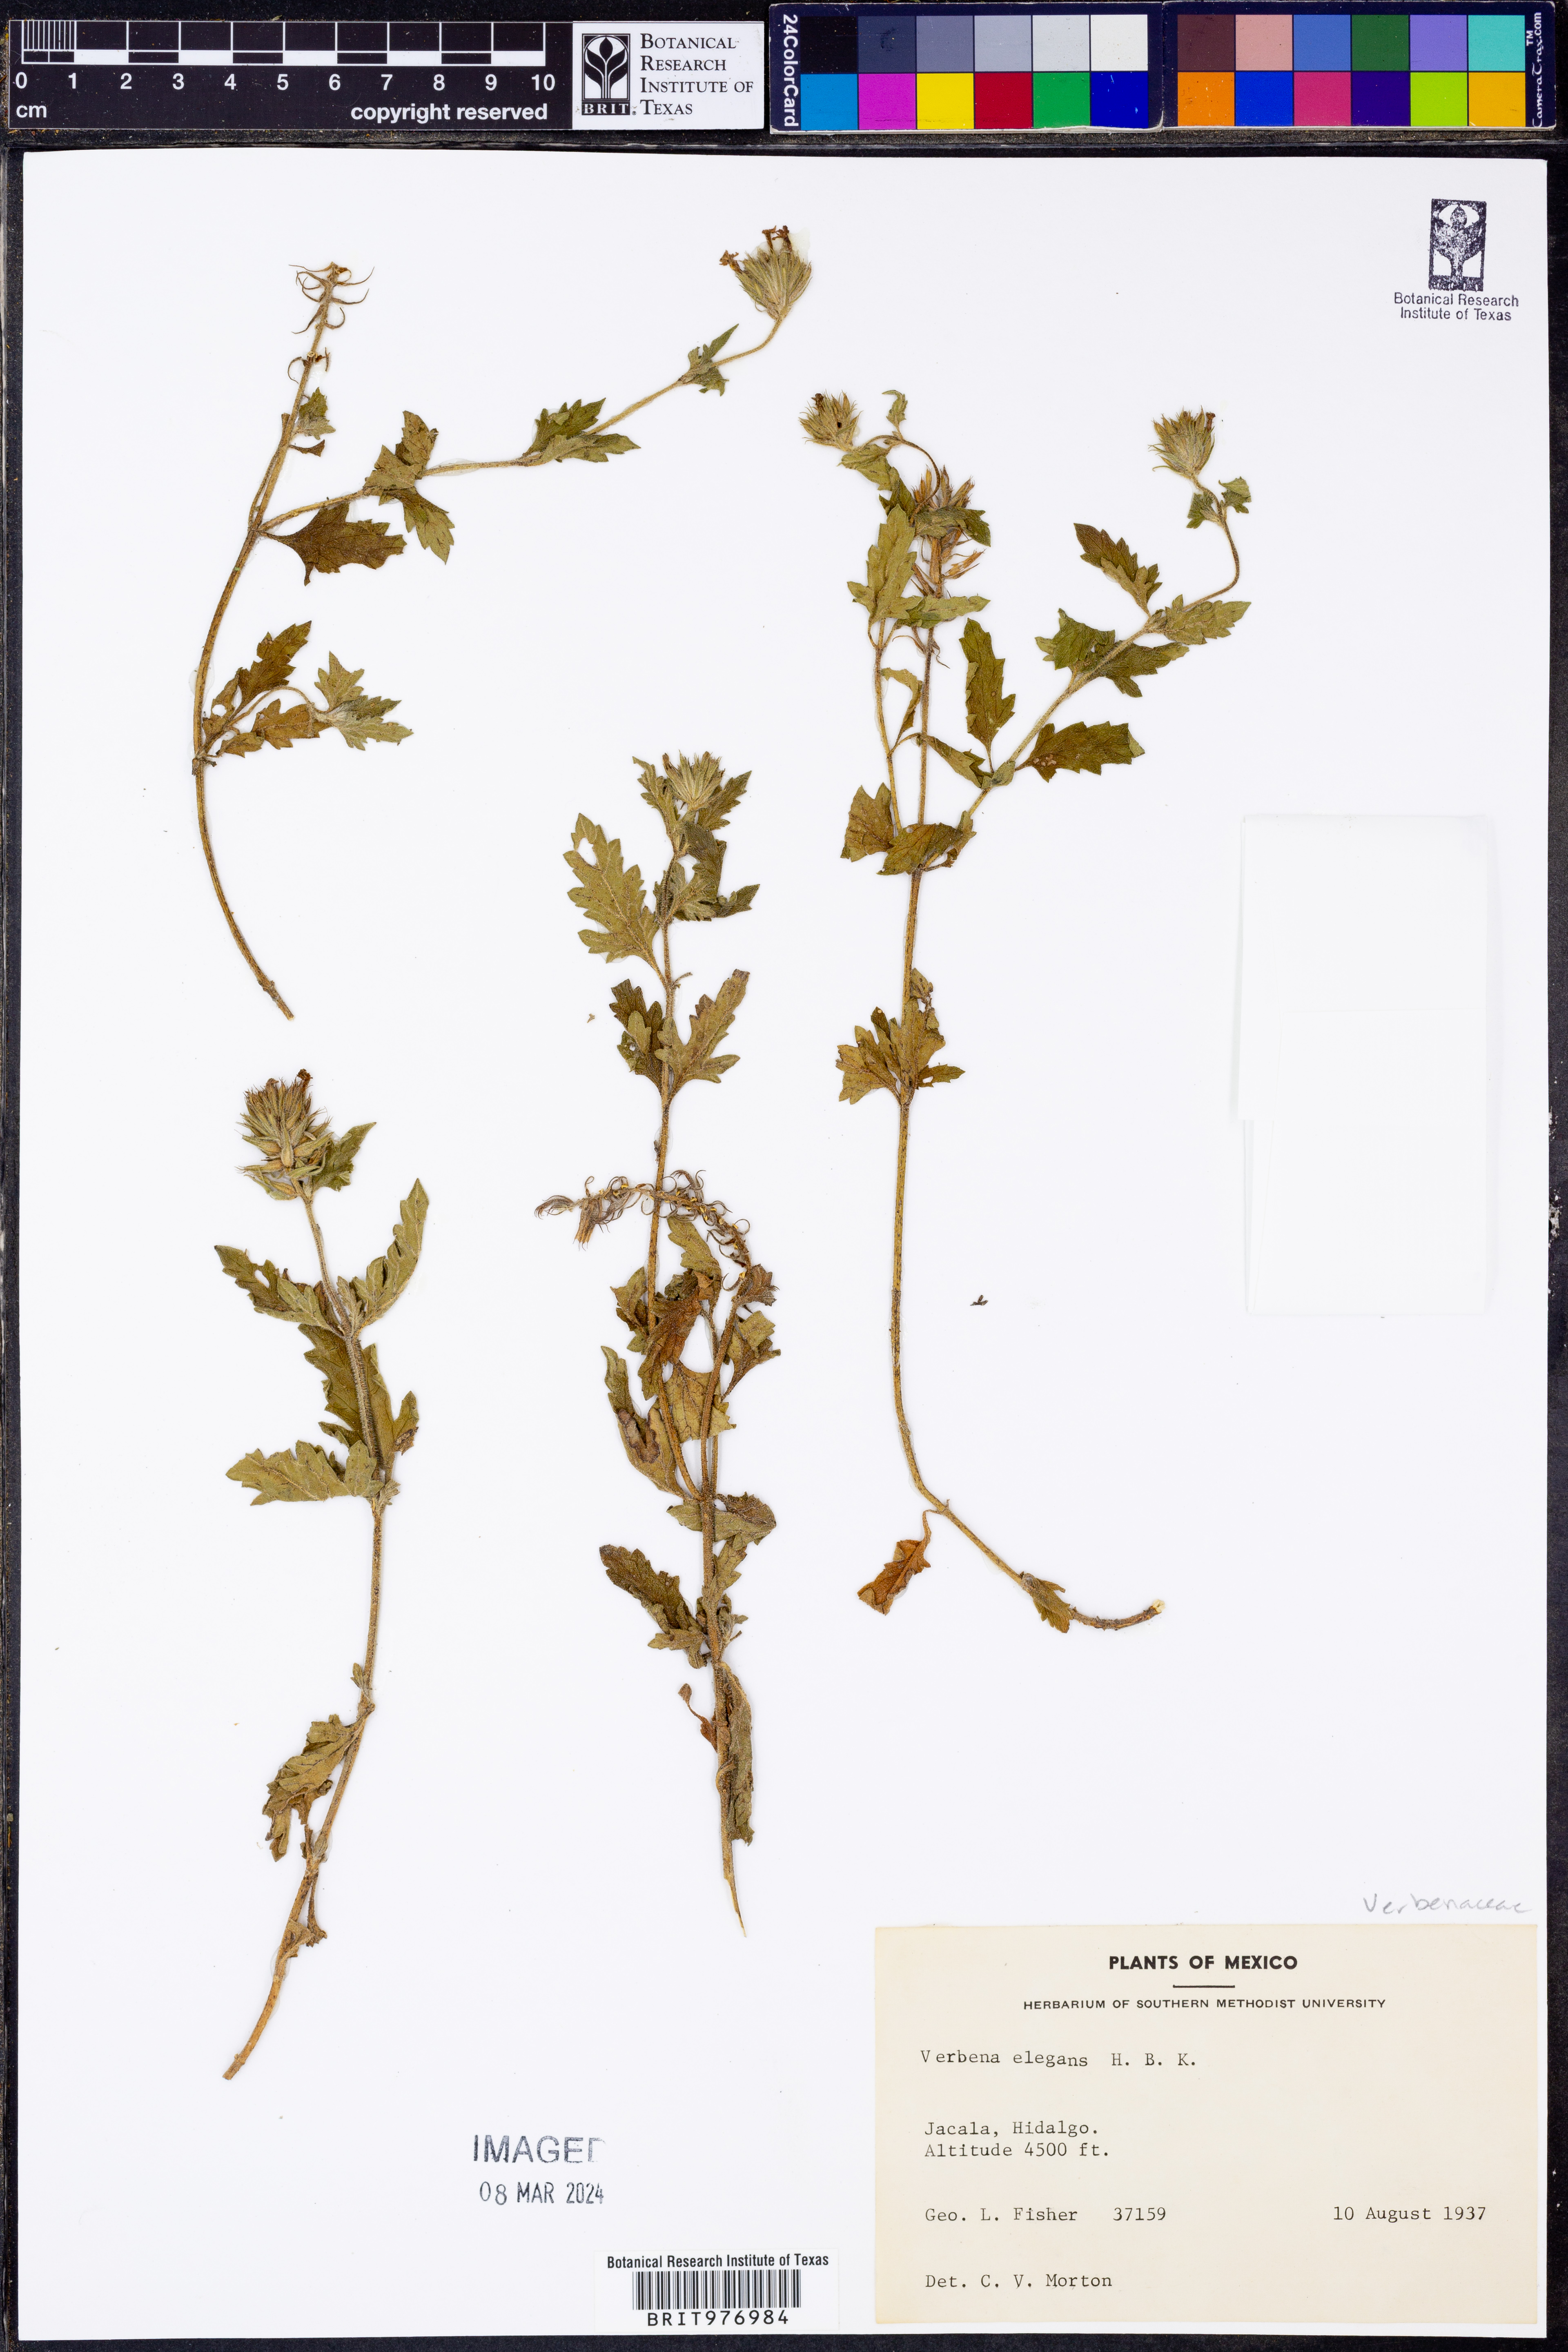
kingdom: Plantae
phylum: Tracheophyta
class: Magnoliopsida
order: Lamiales
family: Verbenaceae
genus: Verbena
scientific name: Verbena elegans
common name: Elegant vervain
